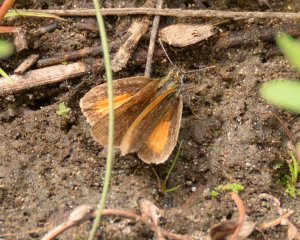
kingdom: Animalia
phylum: Arthropoda
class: Insecta
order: Lepidoptera
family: Hesperiidae
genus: Ancyloxypha
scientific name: Ancyloxypha numitor
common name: Least Skipper
